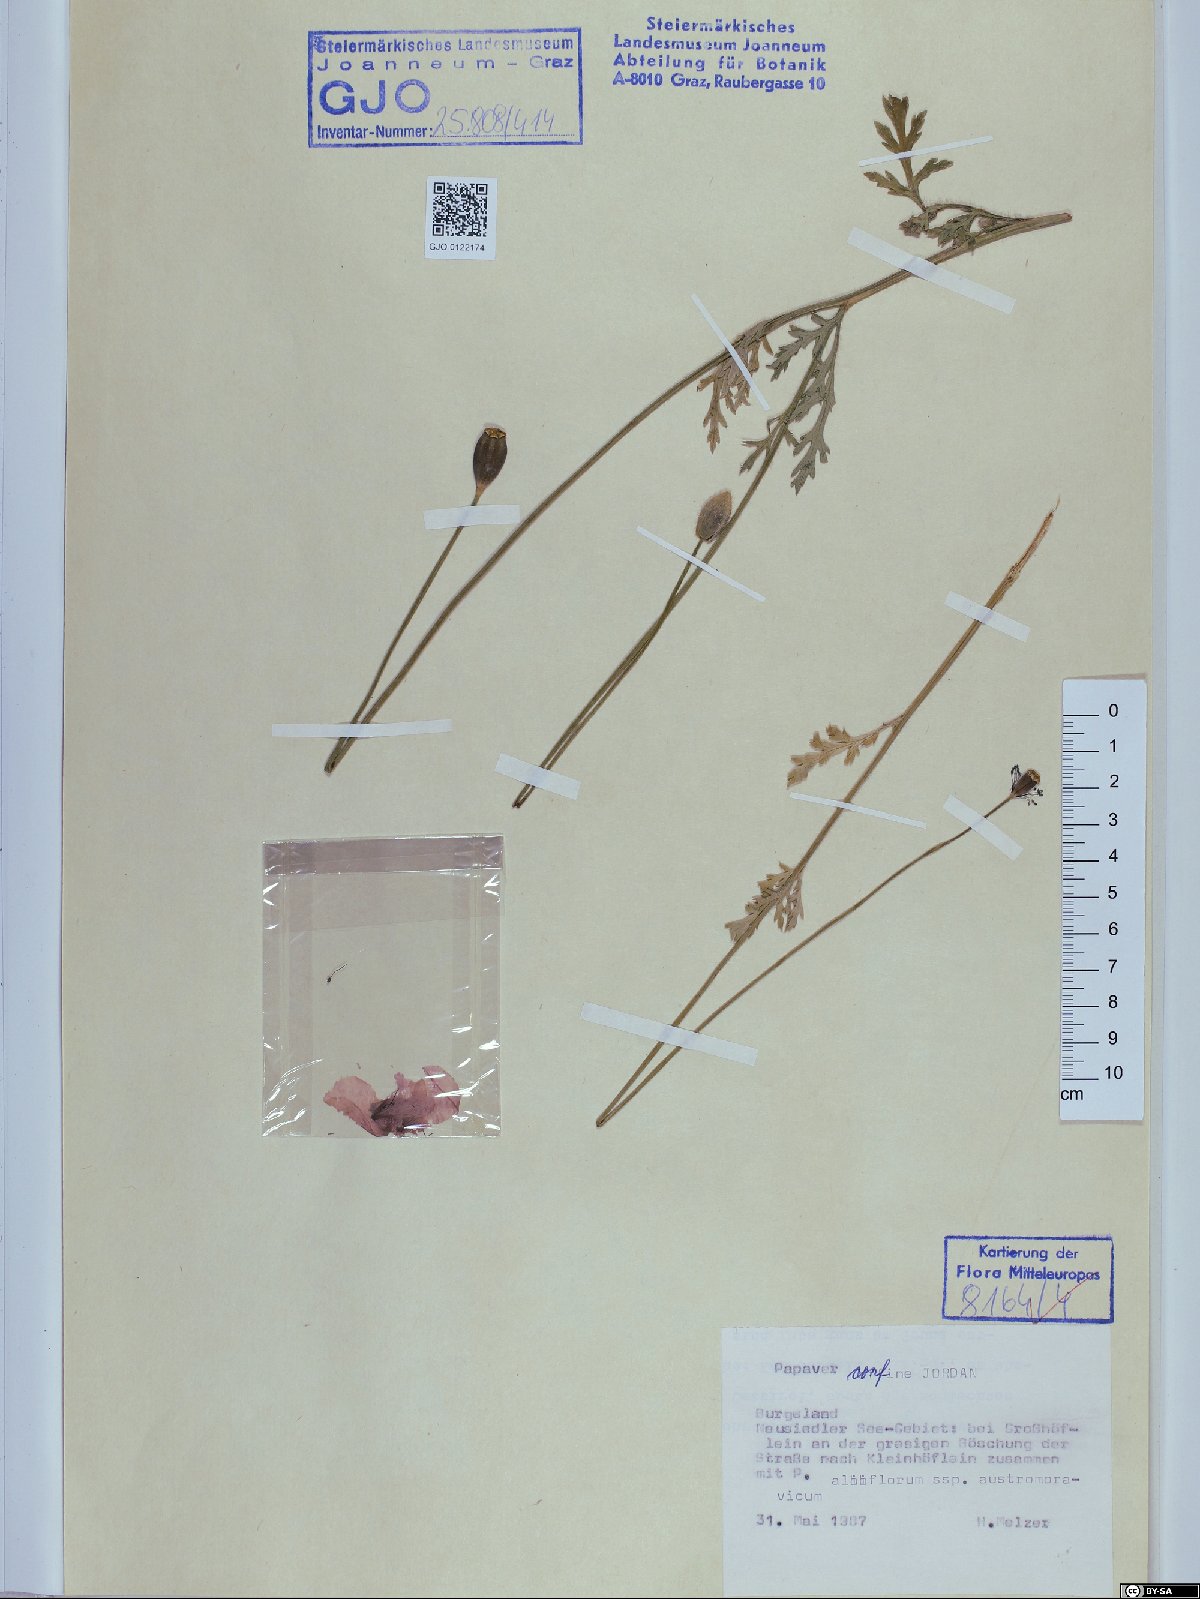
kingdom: Plantae
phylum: Tracheophyta
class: Magnoliopsida
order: Ranunculales
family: Papaveraceae
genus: Papaver
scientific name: Papaver confine
